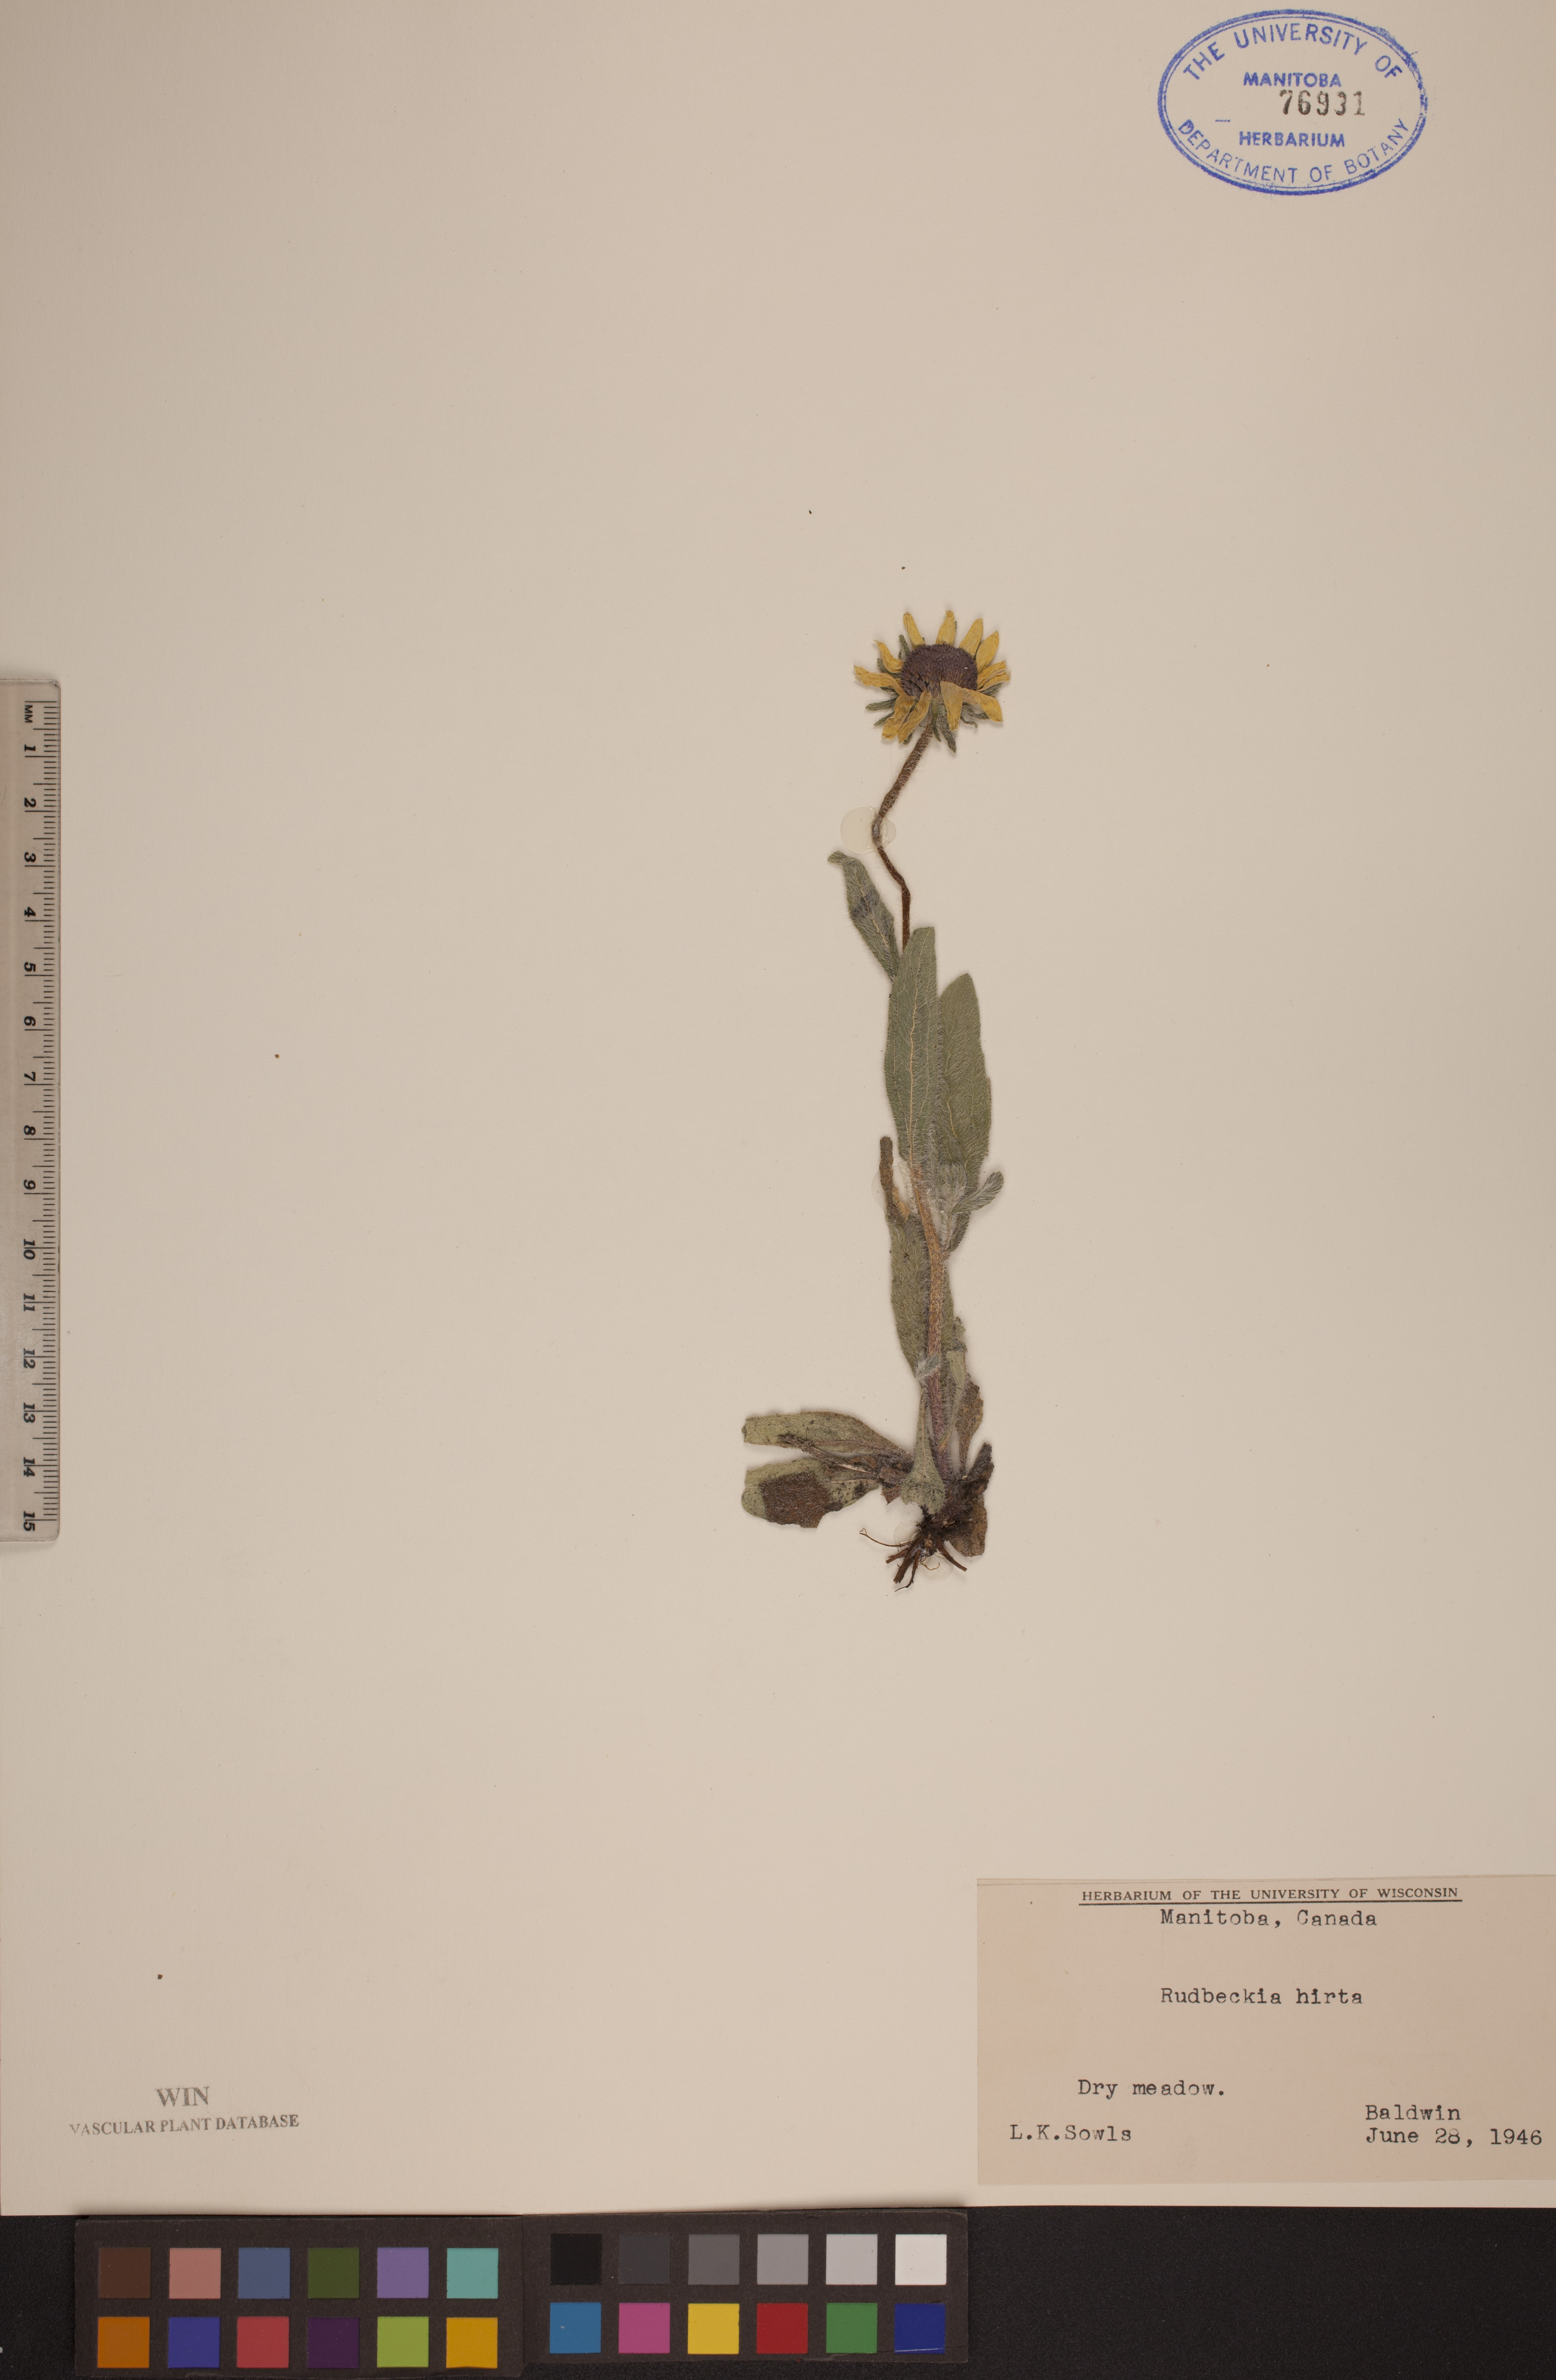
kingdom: Plantae
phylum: Tracheophyta
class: Magnoliopsida
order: Asterales
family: Asteraceae
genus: Rudbeckia
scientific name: Rudbeckia hirta
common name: Black-eyed-susan
